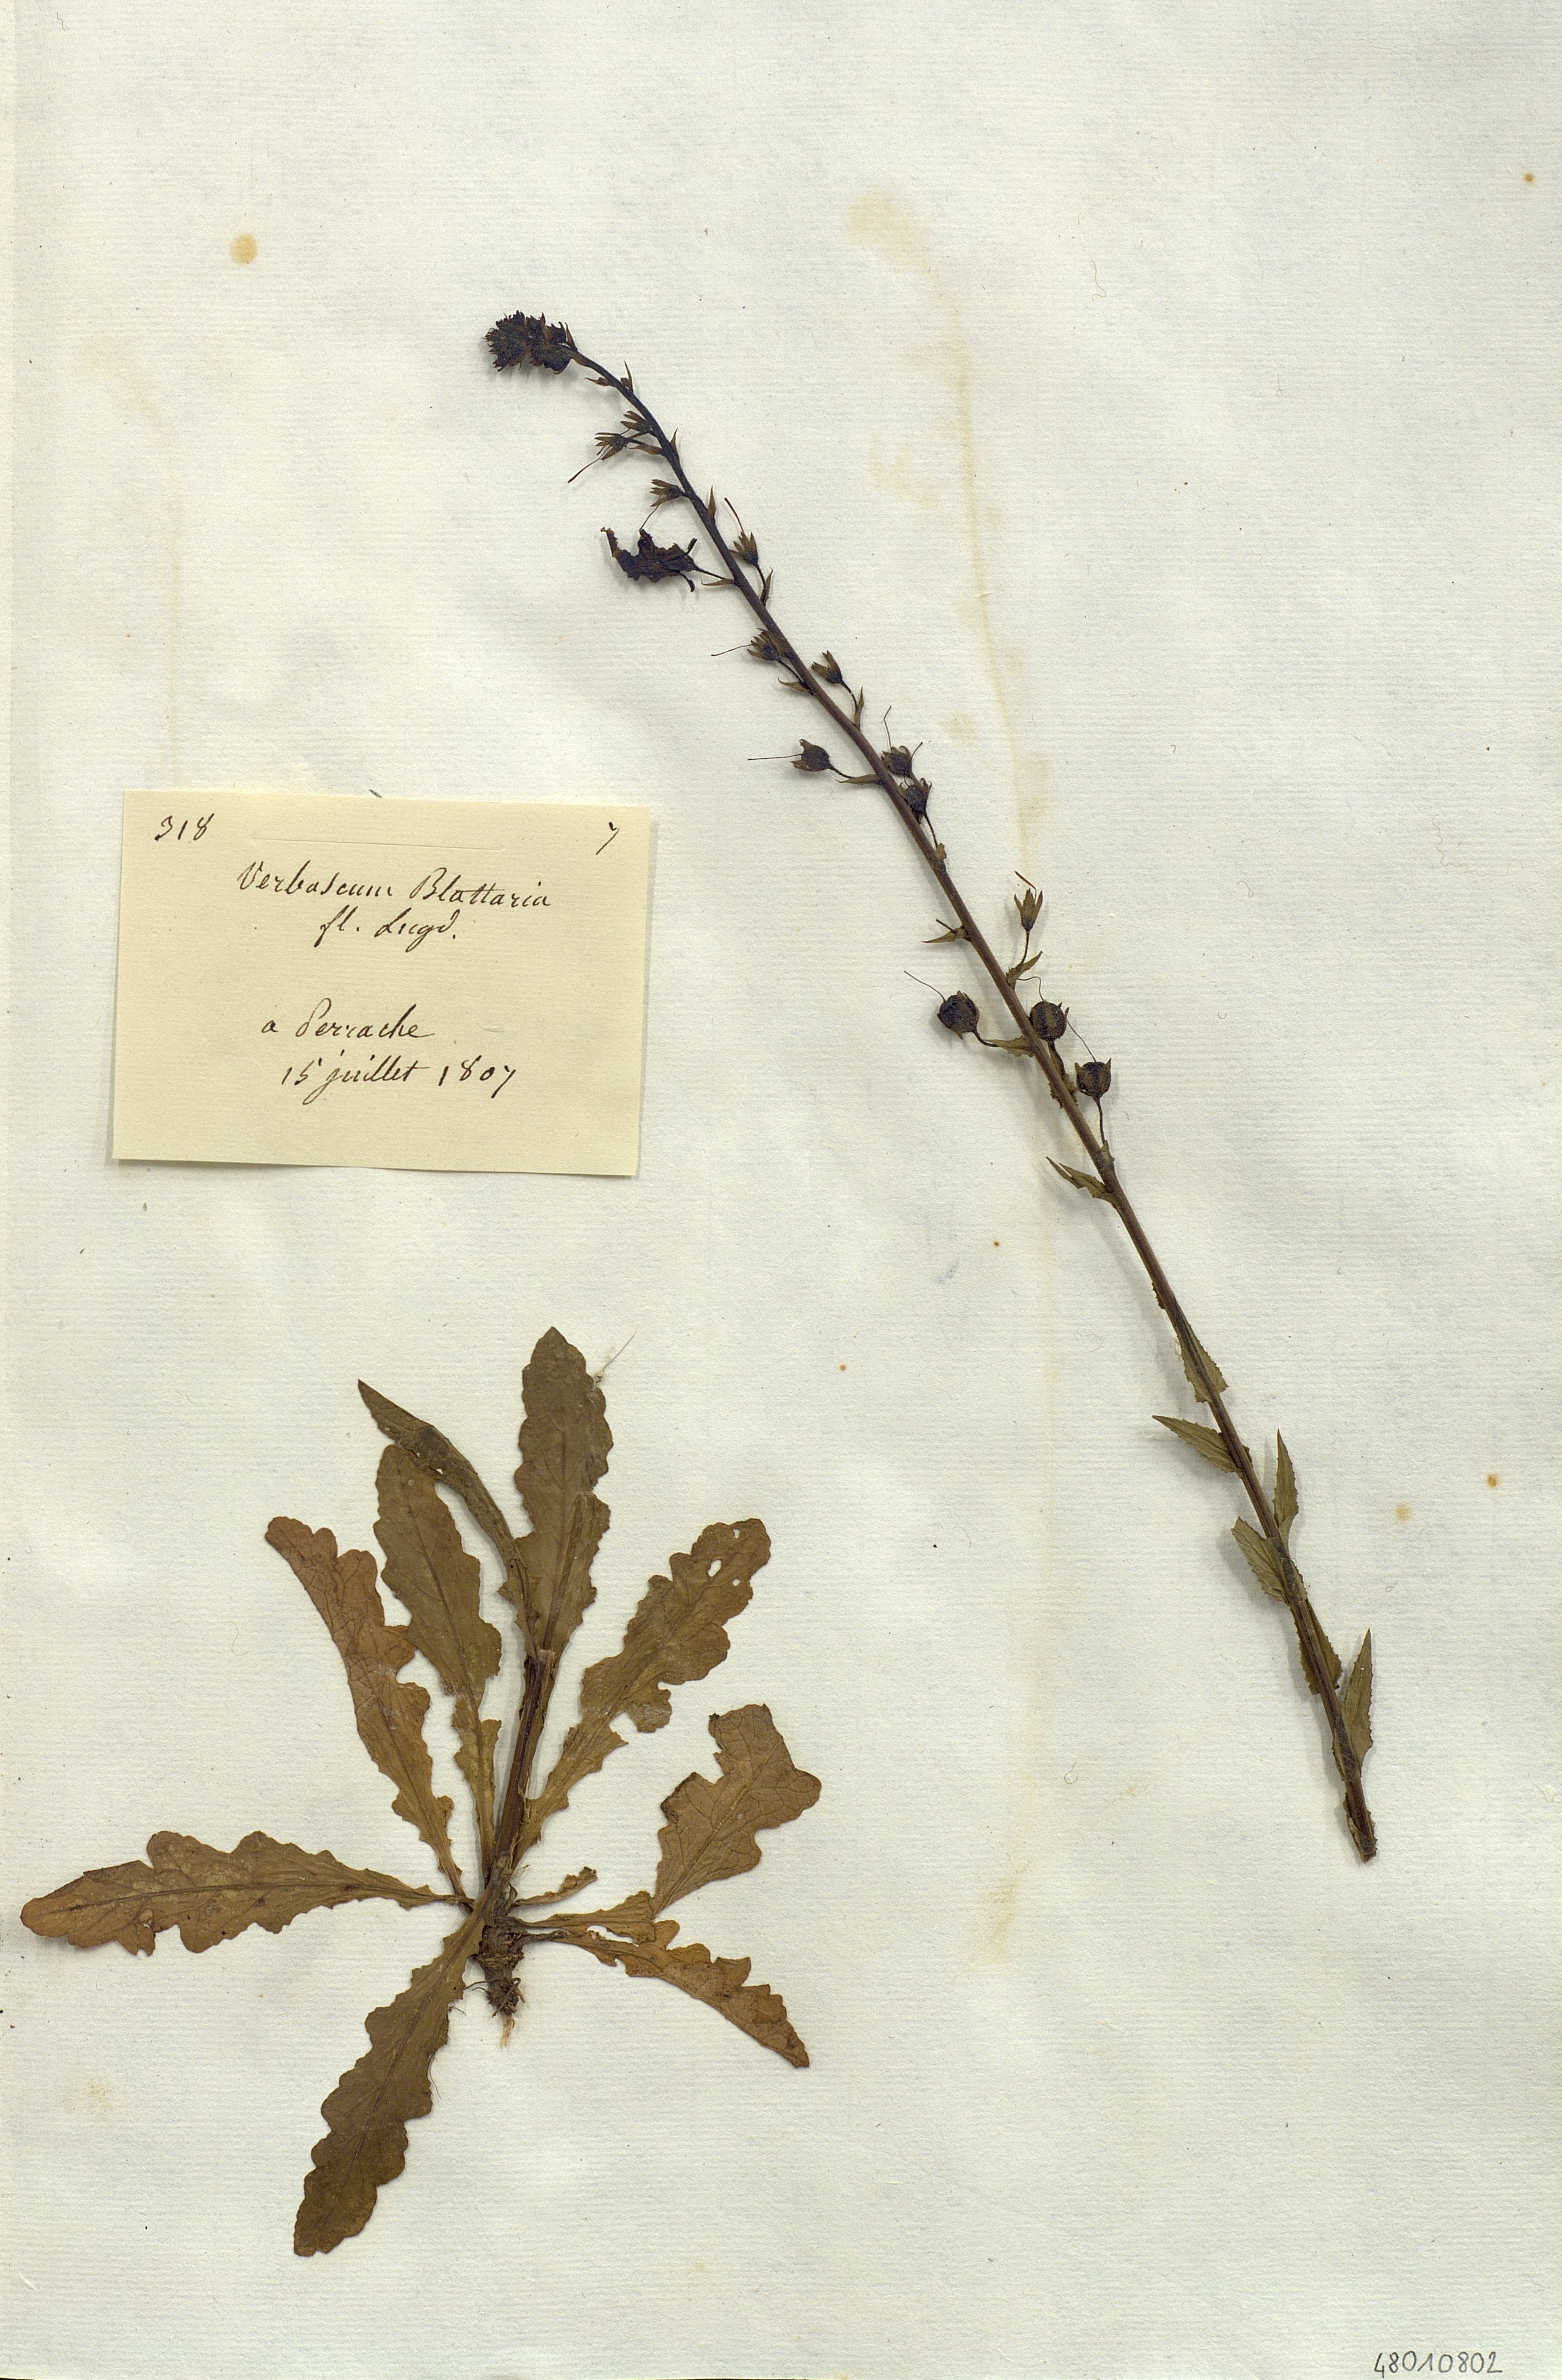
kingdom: Plantae
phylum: Tracheophyta
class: Magnoliopsida
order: Lamiales
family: Scrophulariaceae
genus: Verbascum
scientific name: Verbascum blattaria
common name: Moth mullein
